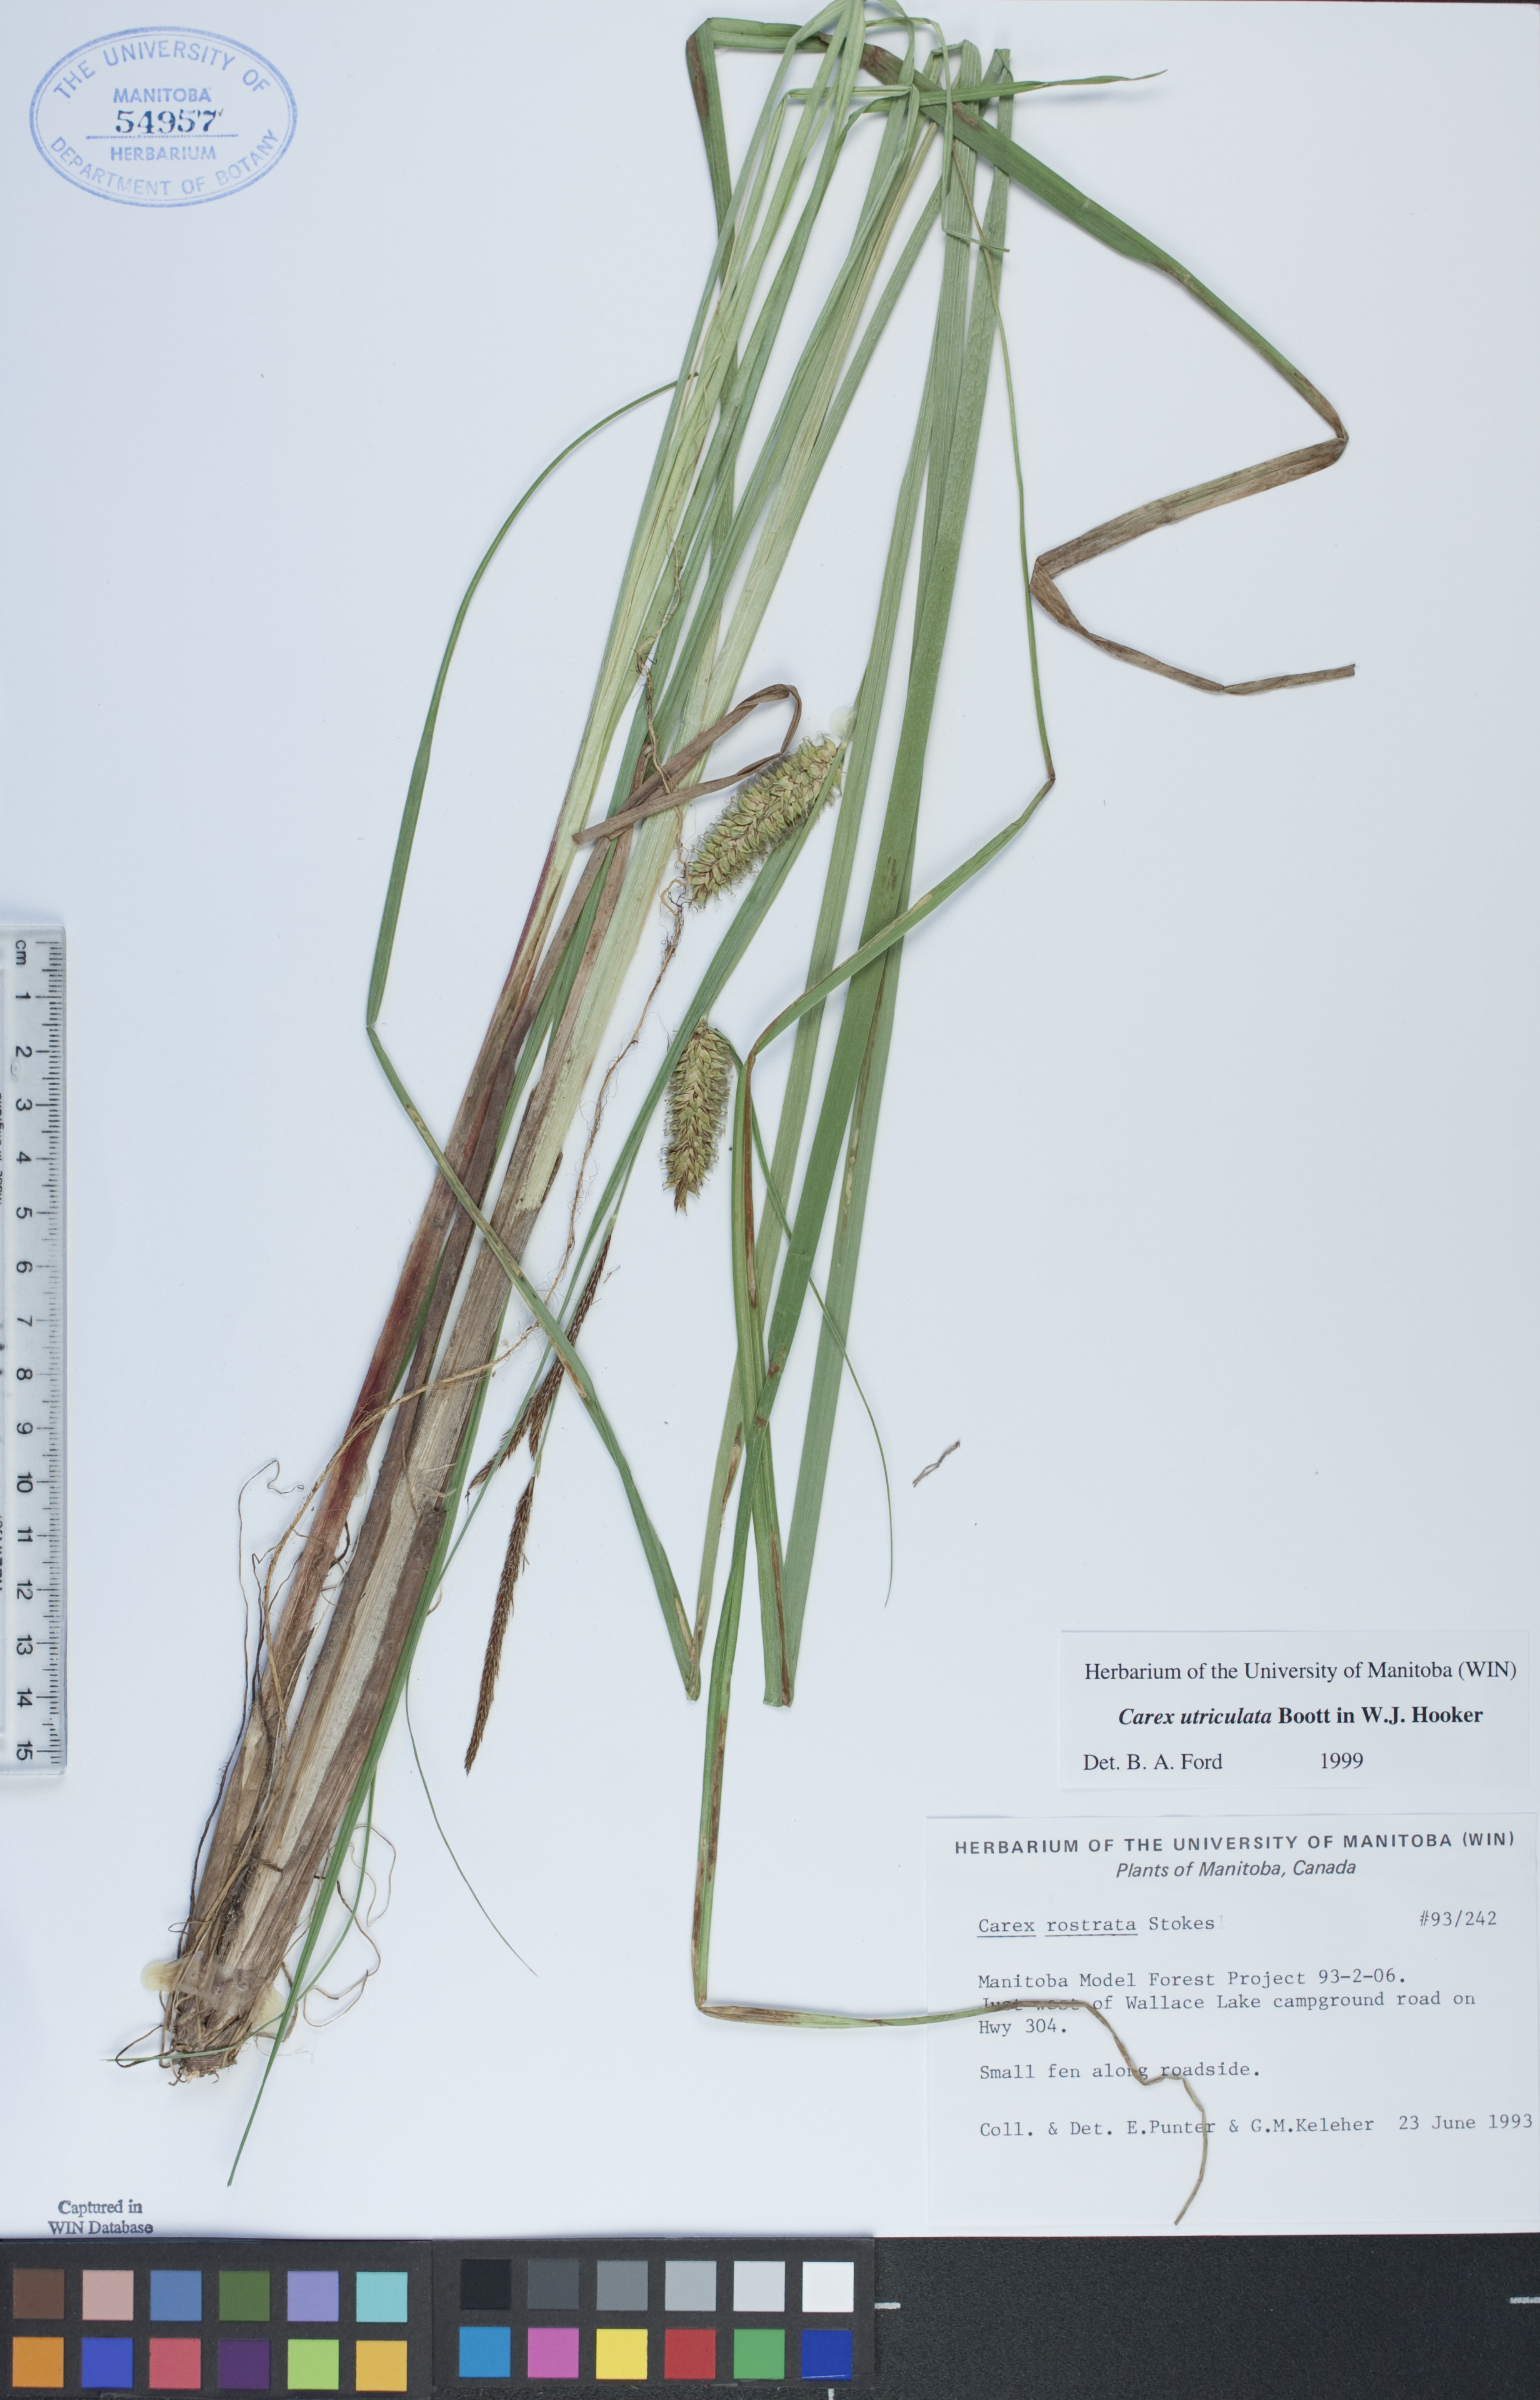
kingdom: Plantae
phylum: Tracheophyta
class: Liliopsida
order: Poales
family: Cyperaceae
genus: Carex
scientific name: Carex utriculata
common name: Beaked sedge
